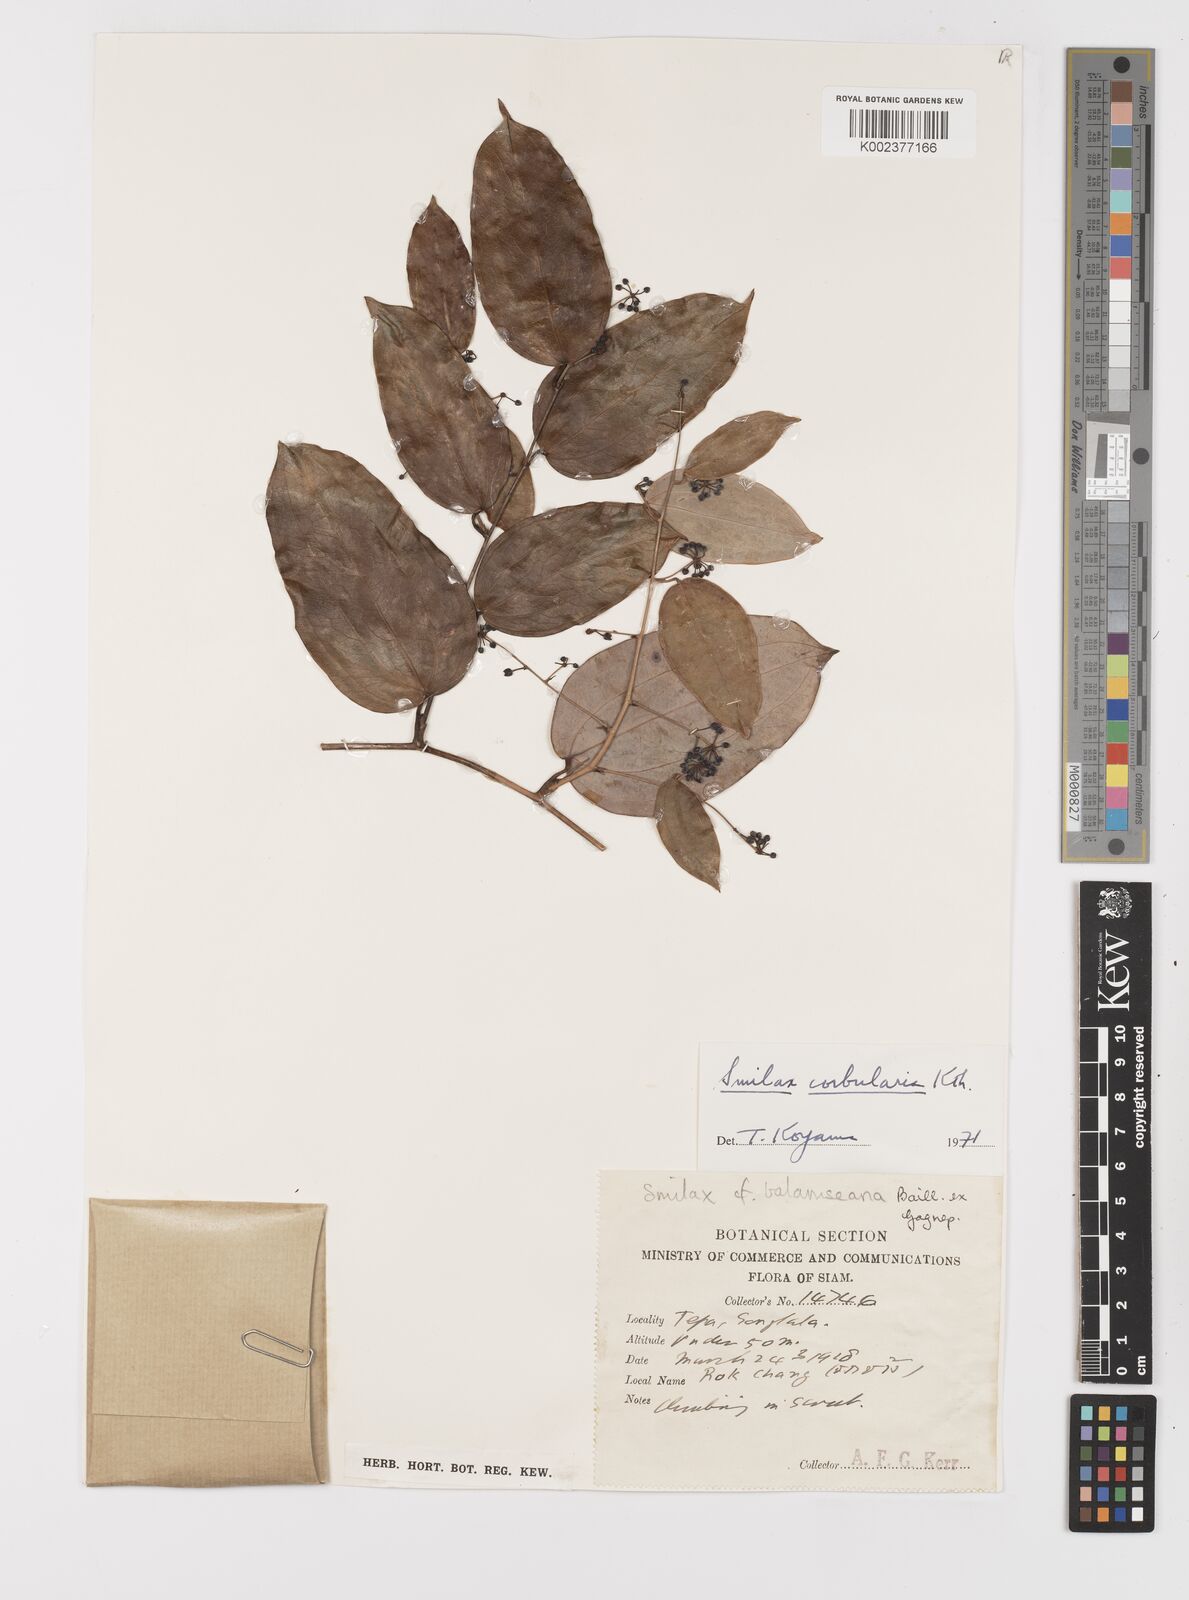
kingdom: Plantae
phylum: Tracheophyta
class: Liliopsida
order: Liliales
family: Smilacaceae
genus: Smilax
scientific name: Smilax corbularia
